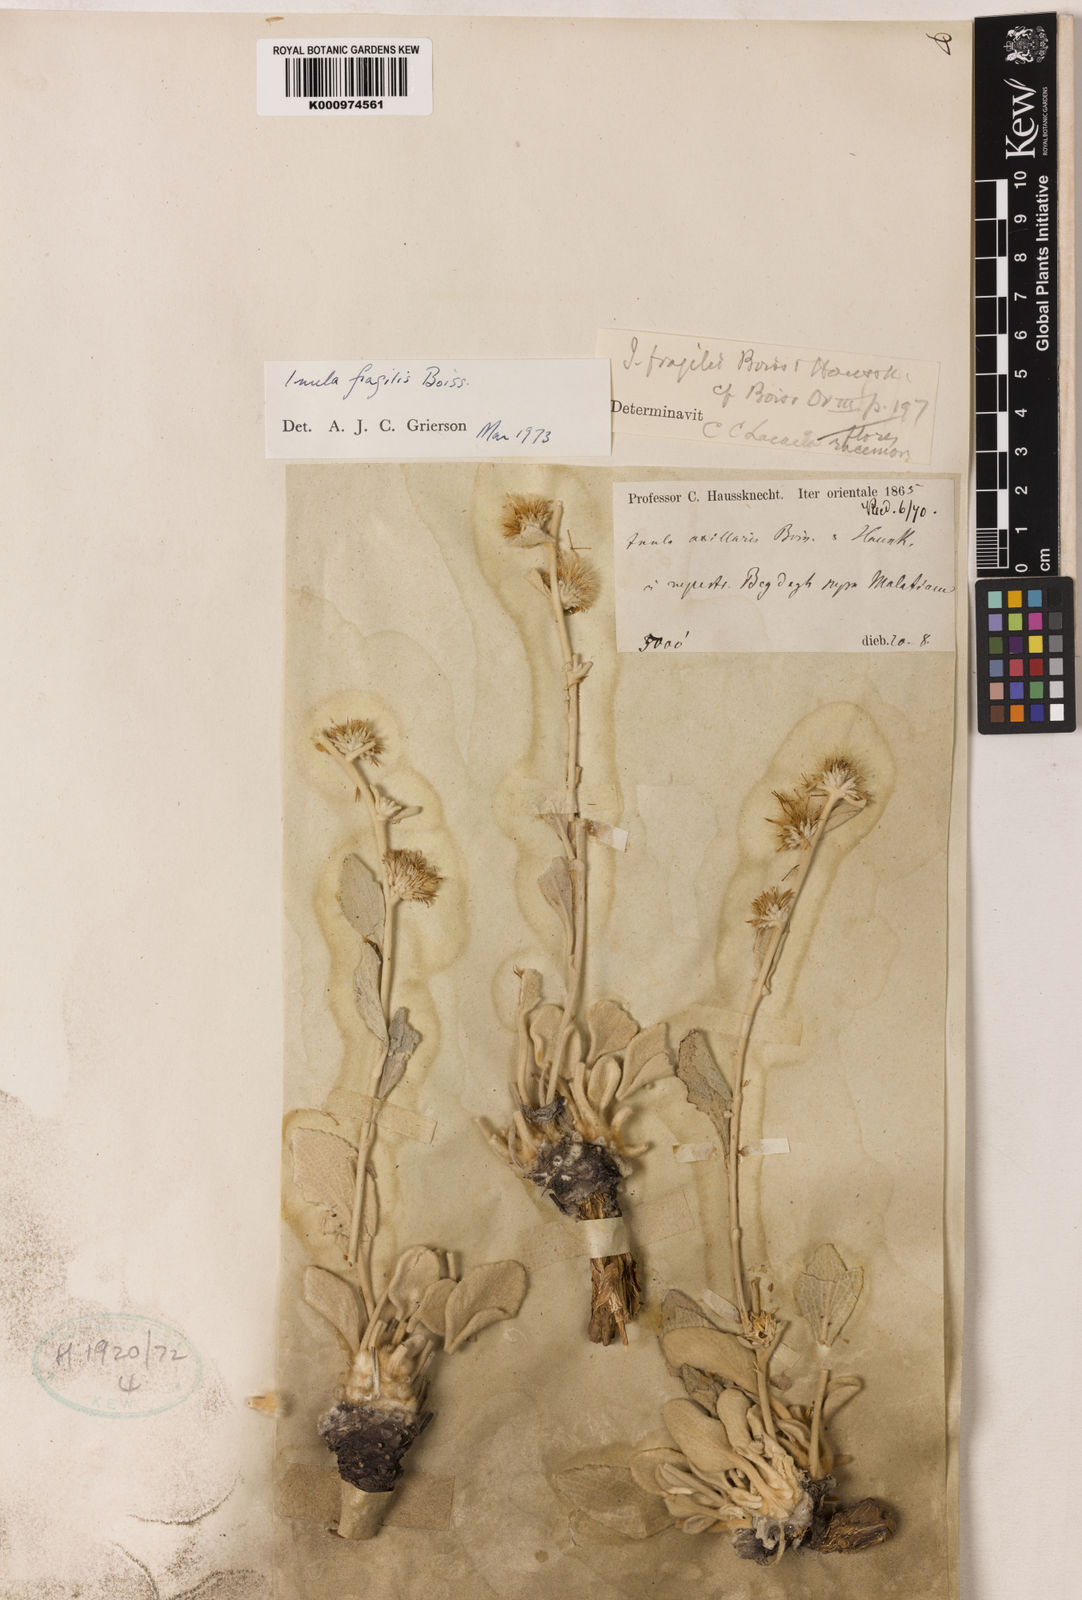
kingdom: Plantae
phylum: Tracheophyta
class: Magnoliopsida
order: Asterales
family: Asteraceae
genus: Inula
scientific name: Inula fragilis
